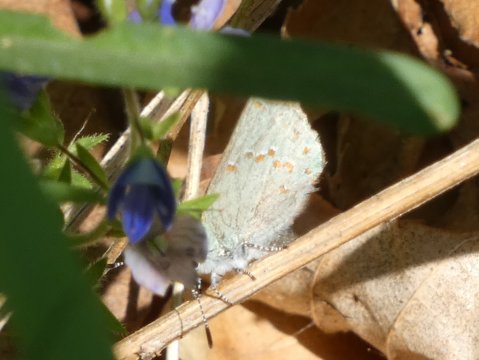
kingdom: Animalia
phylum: Arthropoda
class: Insecta
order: Lepidoptera
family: Lycaenidae
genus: Erora
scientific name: Erora laeta
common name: Early Hairstreak
